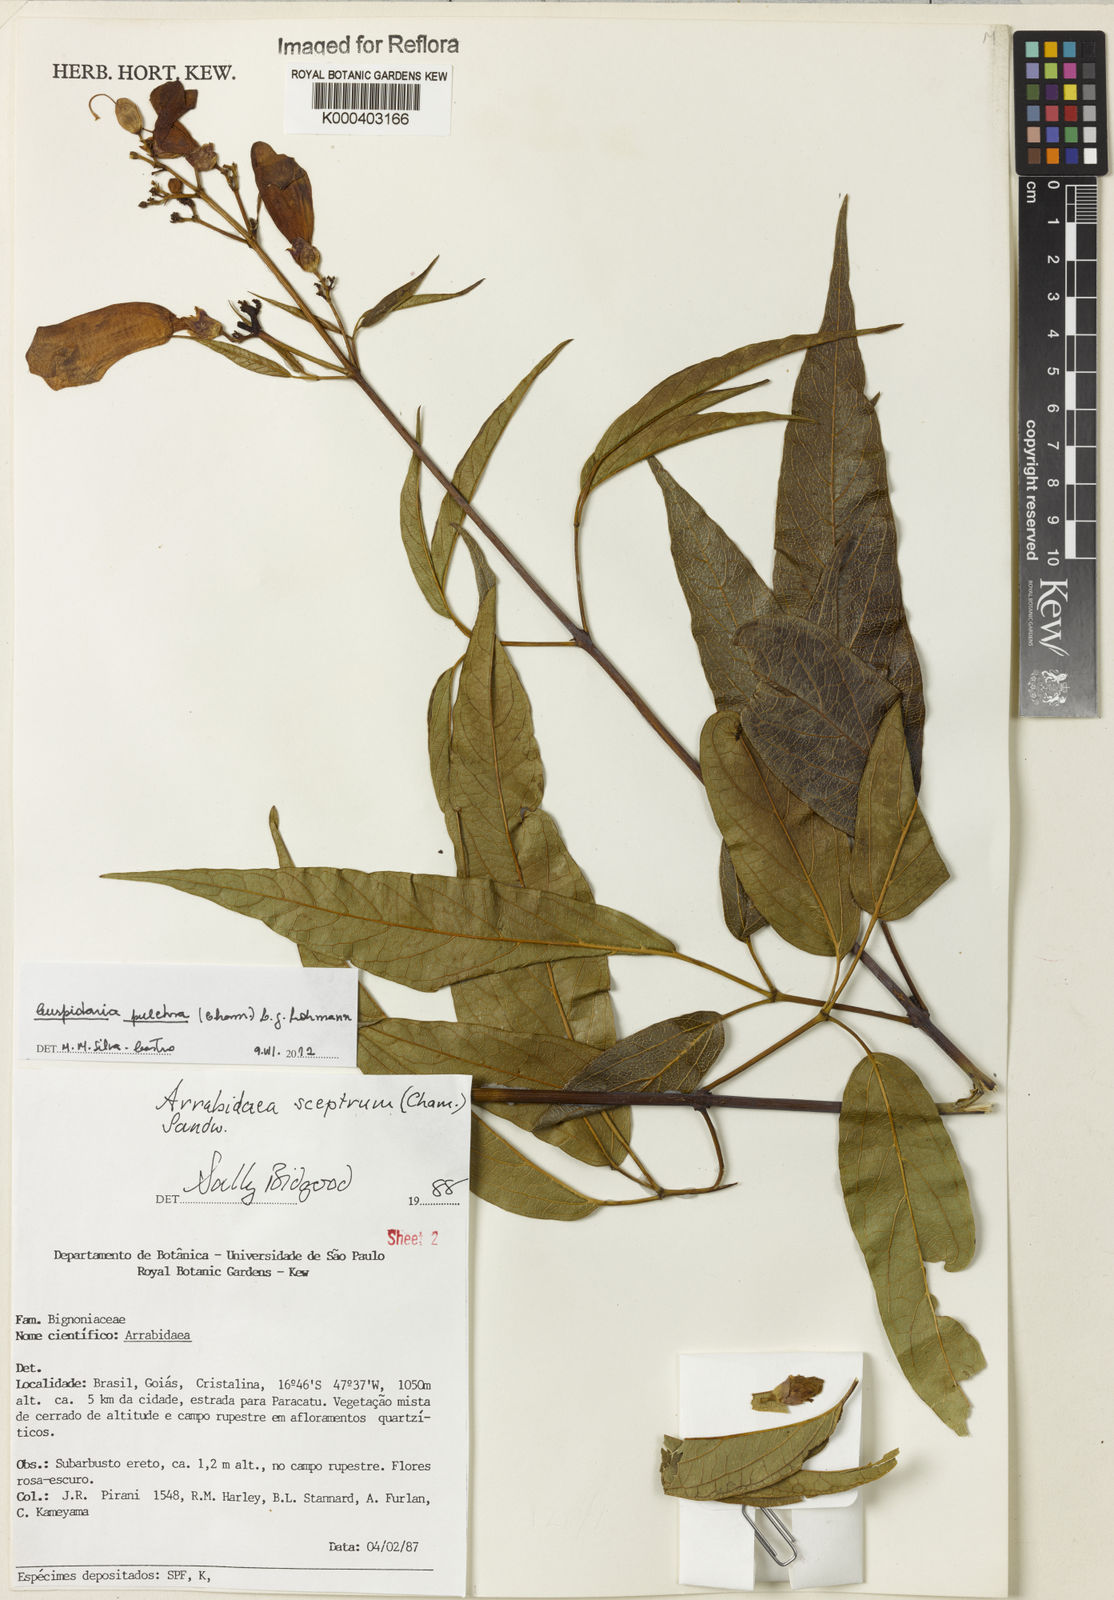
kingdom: Plantae
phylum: Tracheophyta
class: Magnoliopsida
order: Lamiales
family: Bignoniaceae
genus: Cuspidaria
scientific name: Cuspidaria pulchra
